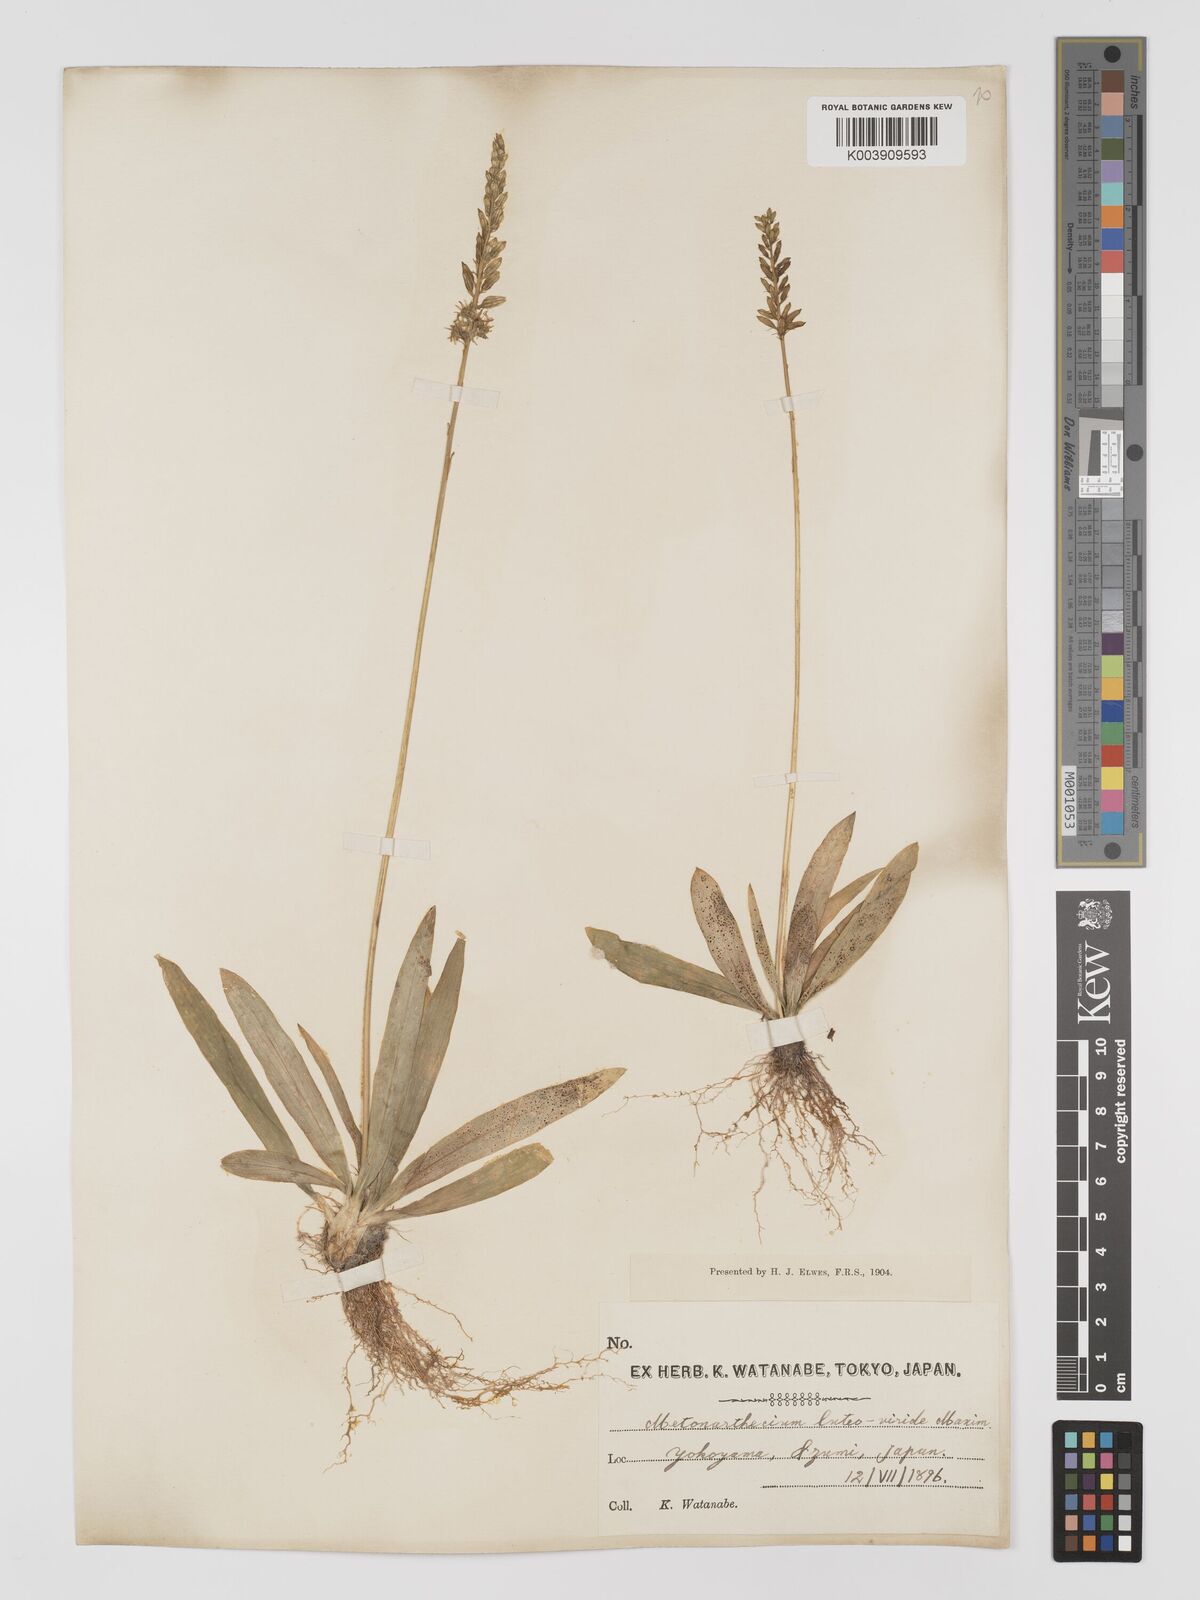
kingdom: Plantae
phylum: Tracheophyta
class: Liliopsida
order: Dioscoreales
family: Nartheciaceae
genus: Metanarthecium
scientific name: Metanarthecium luteoviride
